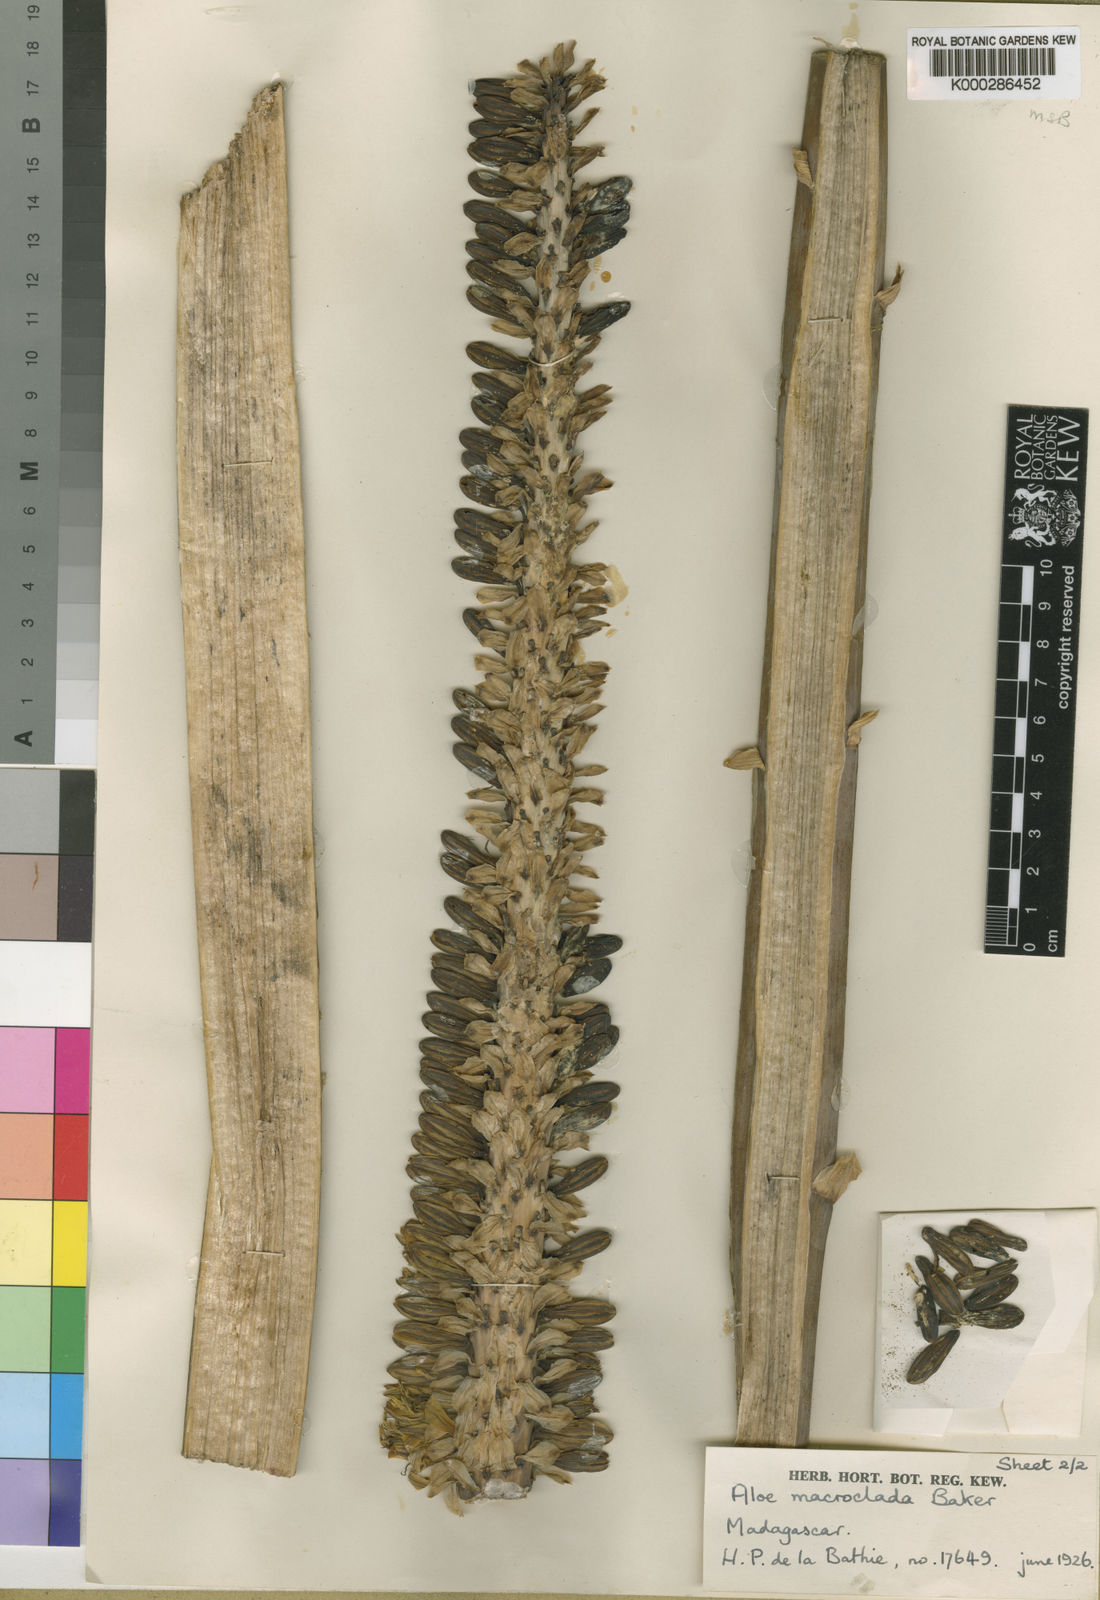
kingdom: Plantae
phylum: Tracheophyta
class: Liliopsida
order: Asparagales
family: Asphodelaceae
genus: Aloe
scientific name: Aloe macroclada
